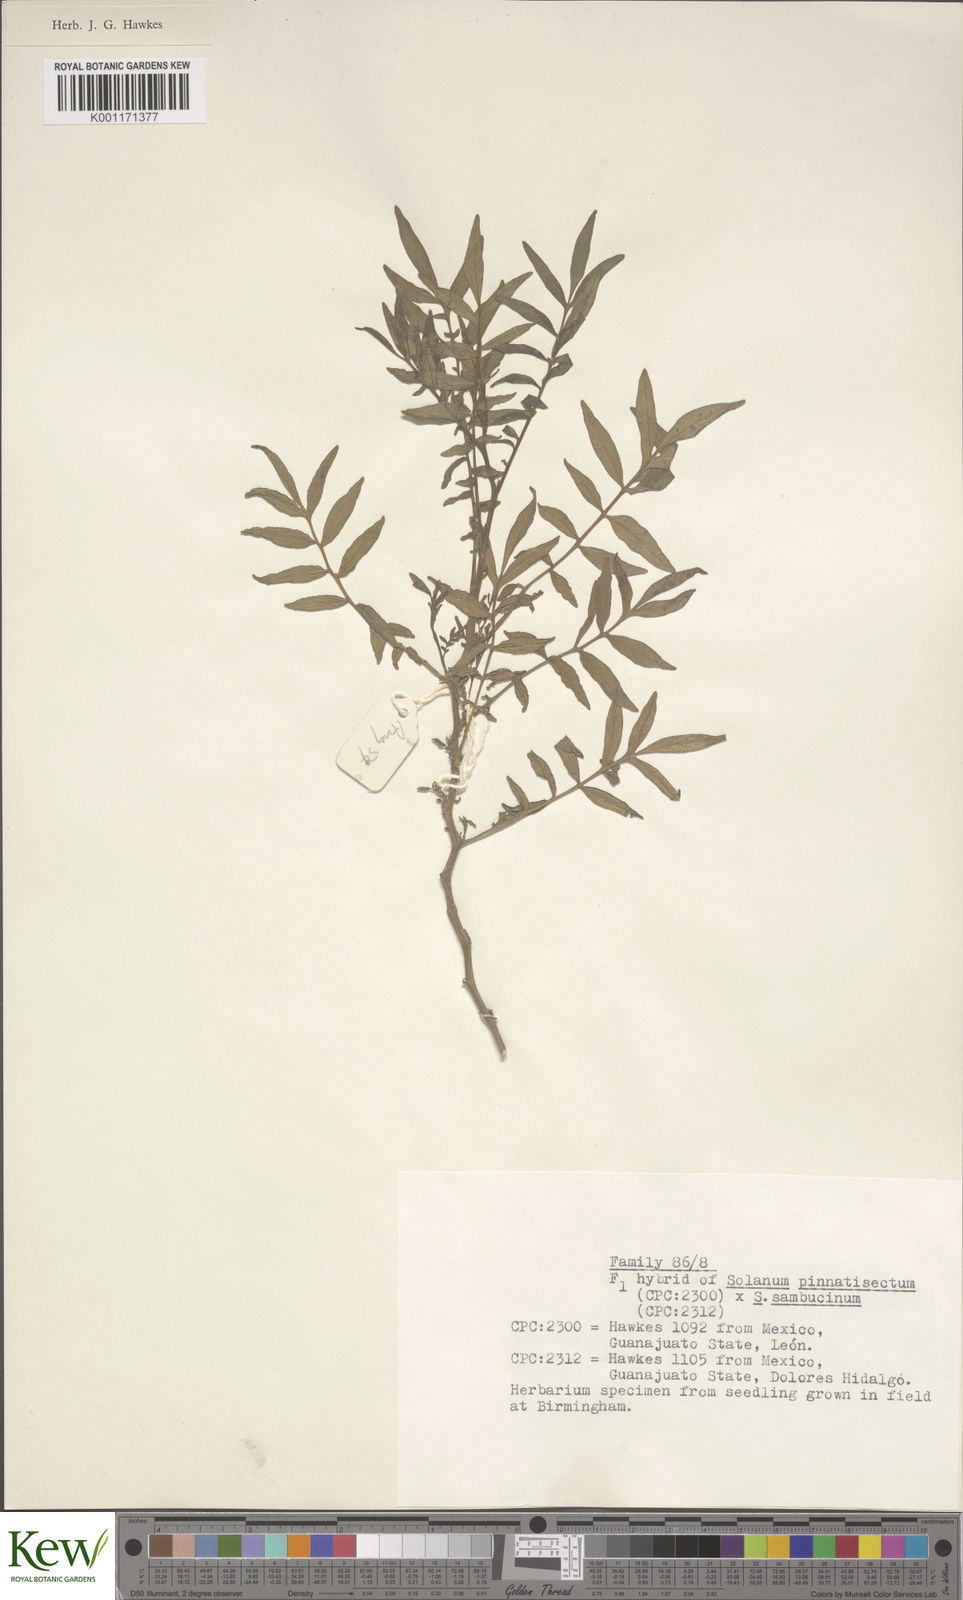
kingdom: Plantae
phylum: Tracheophyta
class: Magnoliopsida
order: Solanales
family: Solanaceae
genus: Solanum
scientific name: Solanum pinnatisectum
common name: Tansyleaf nightshade
